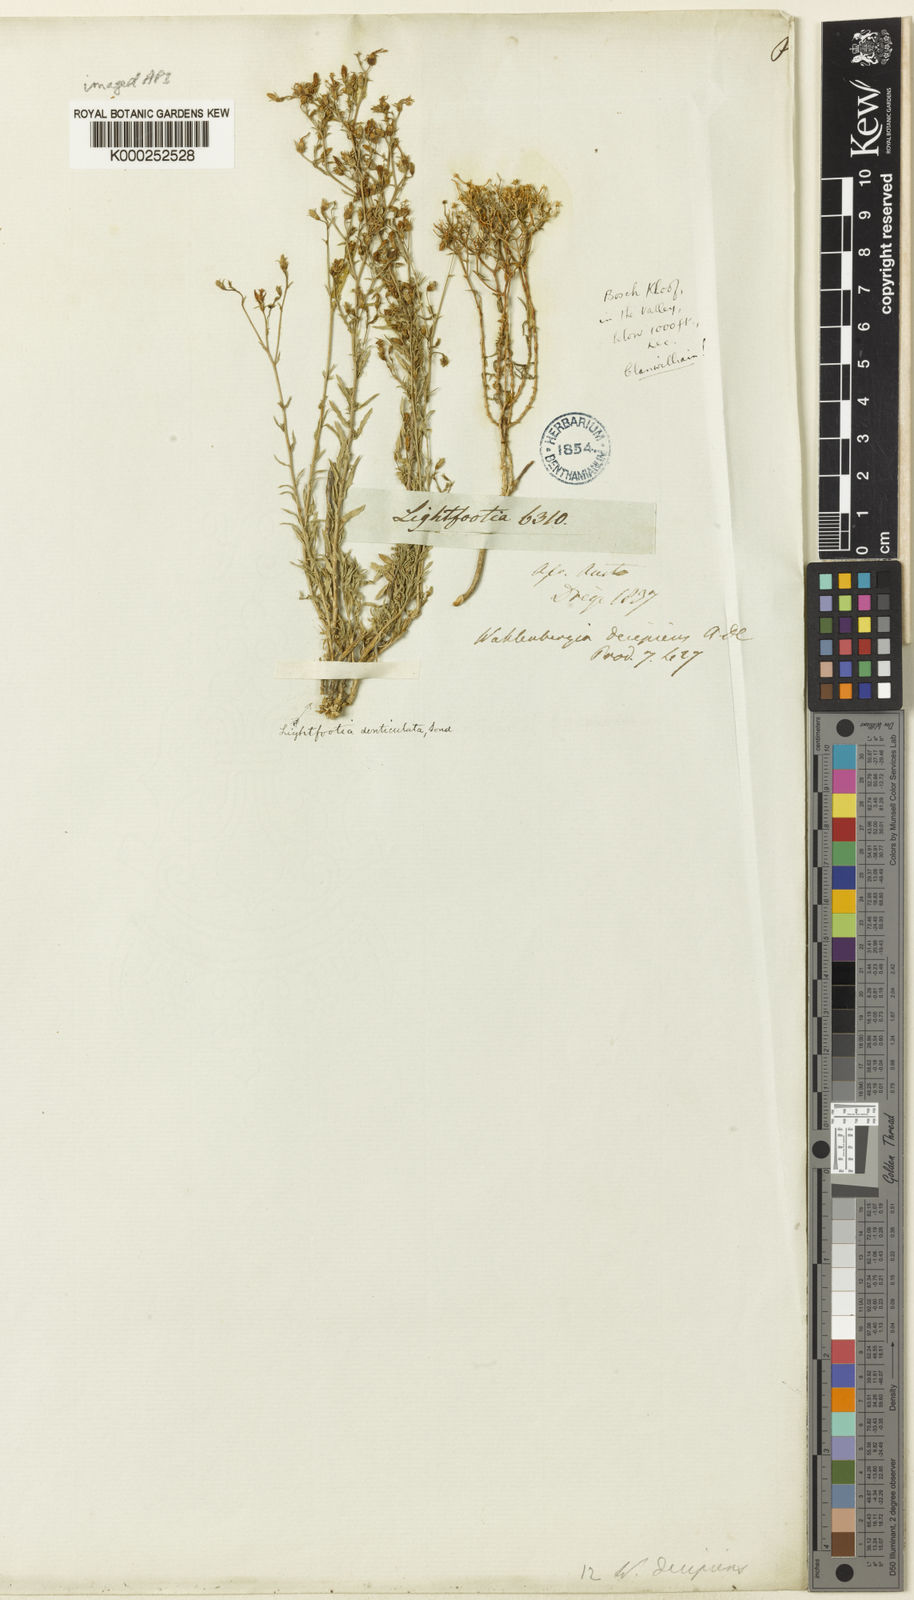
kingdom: Plantae
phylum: Tracheophyta
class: Magnoliopsida
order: Asterales
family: Campanulaceae
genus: Wahlenbergia
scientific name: Wahlenbergia decipiens
